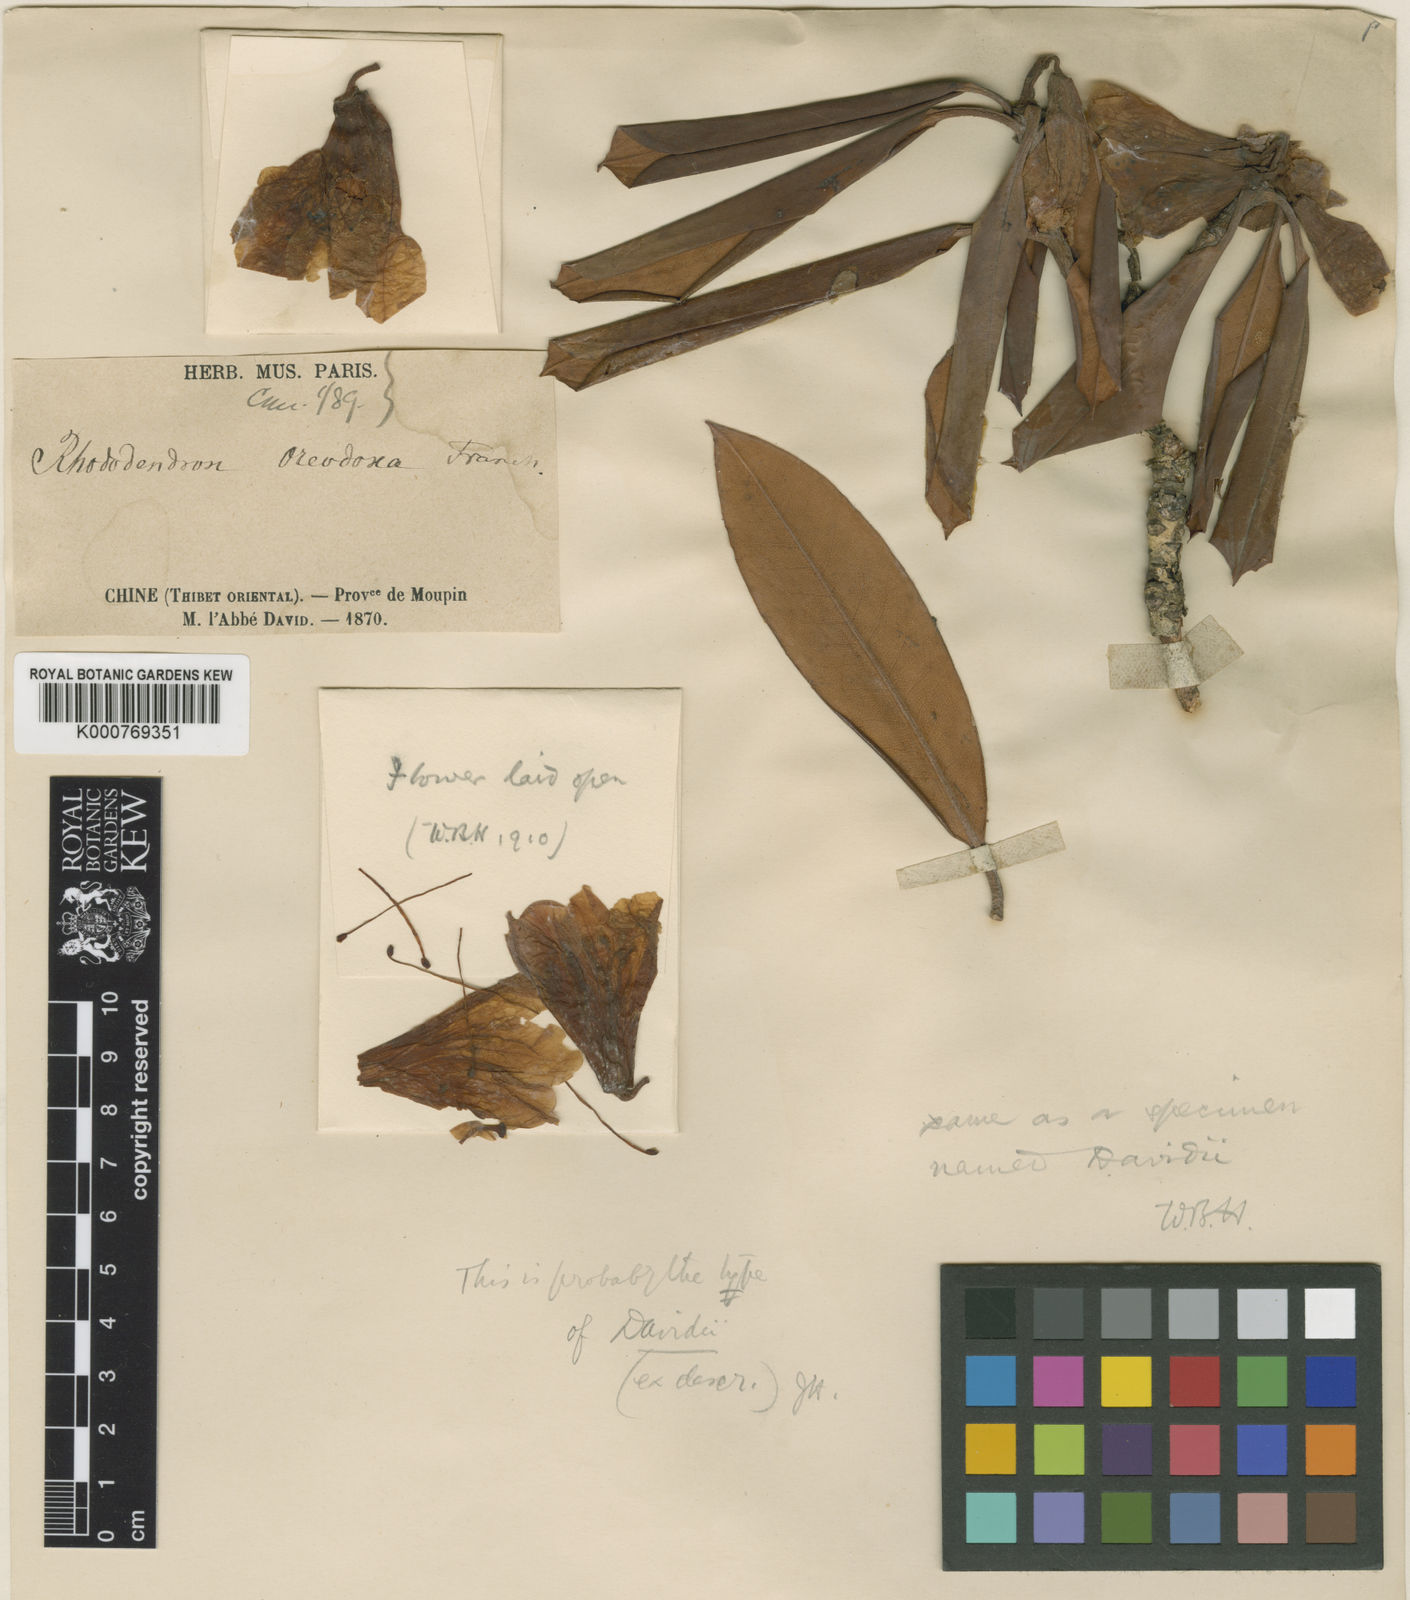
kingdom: Plantae
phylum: Tracheophyta
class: Magnoliopsida
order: Ericales
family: Ericaceae
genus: Rhododendron
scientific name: Rhododendron davidi
